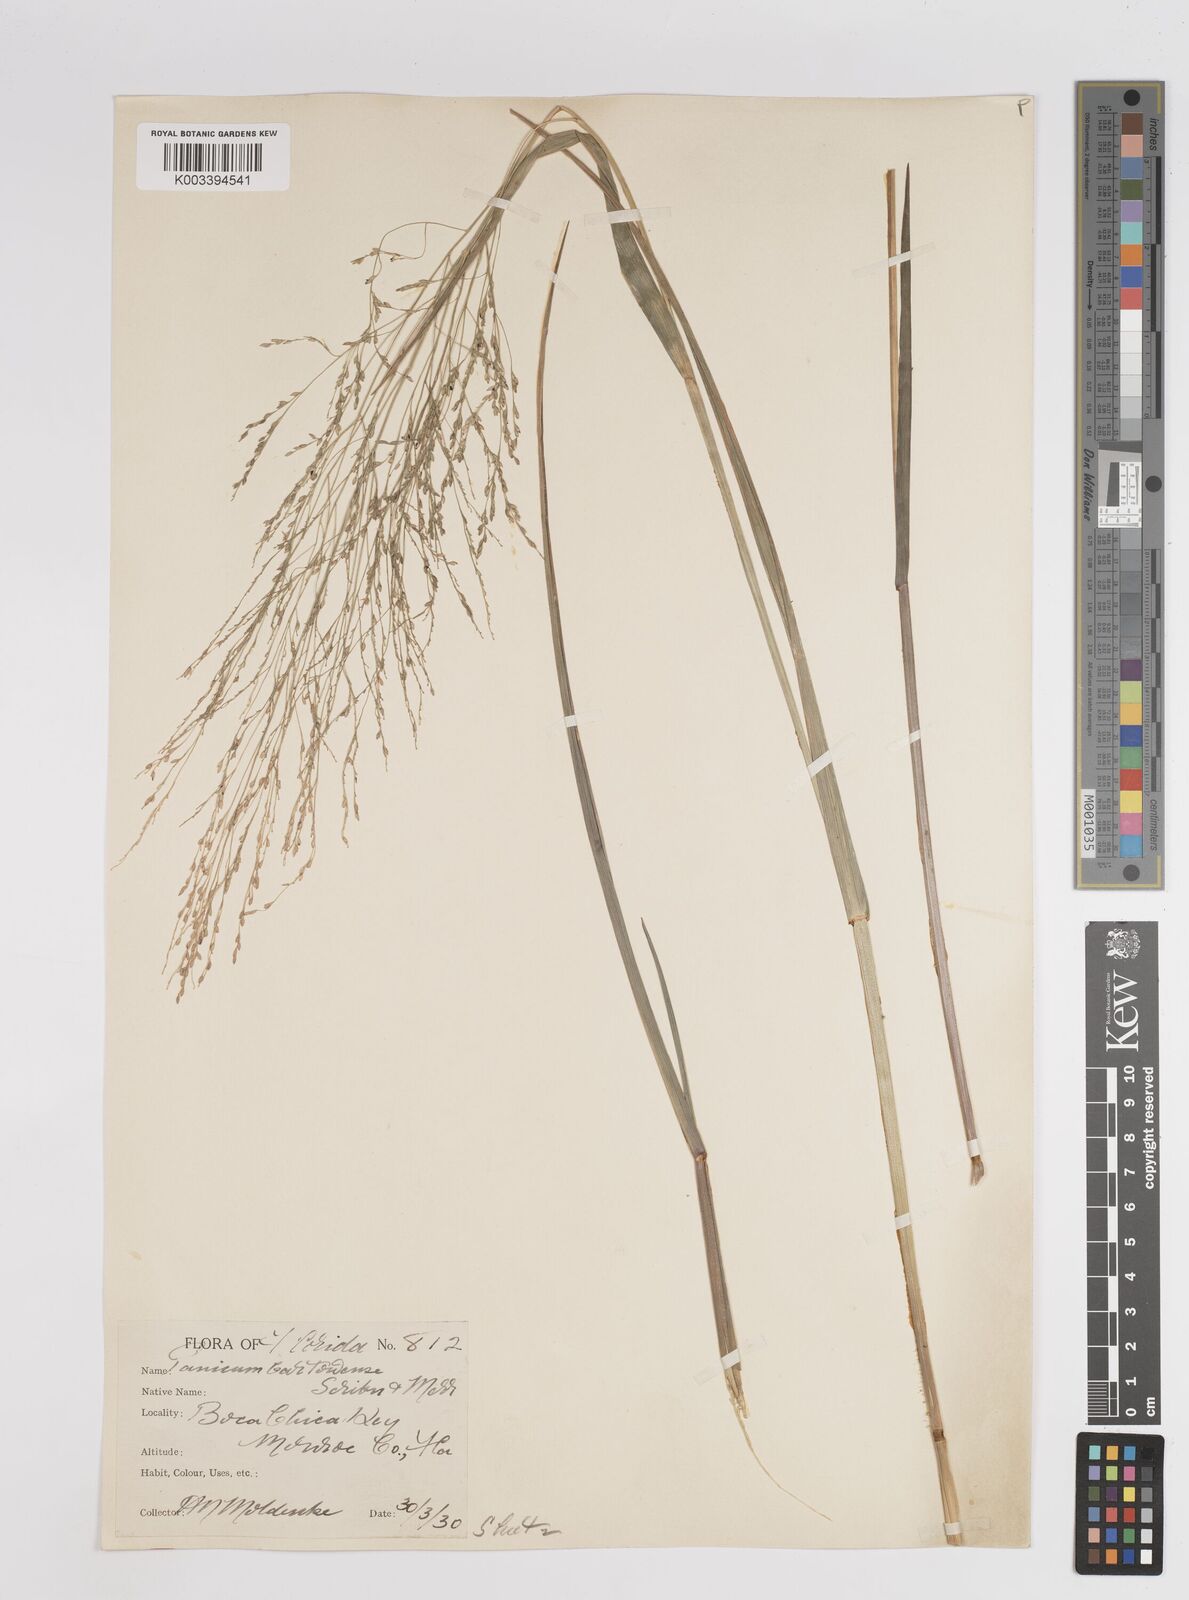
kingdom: Plantae
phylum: Tracheophyta
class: Liliopsida
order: Poales
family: Poaceae
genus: Panicum
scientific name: Panicum bartowense
